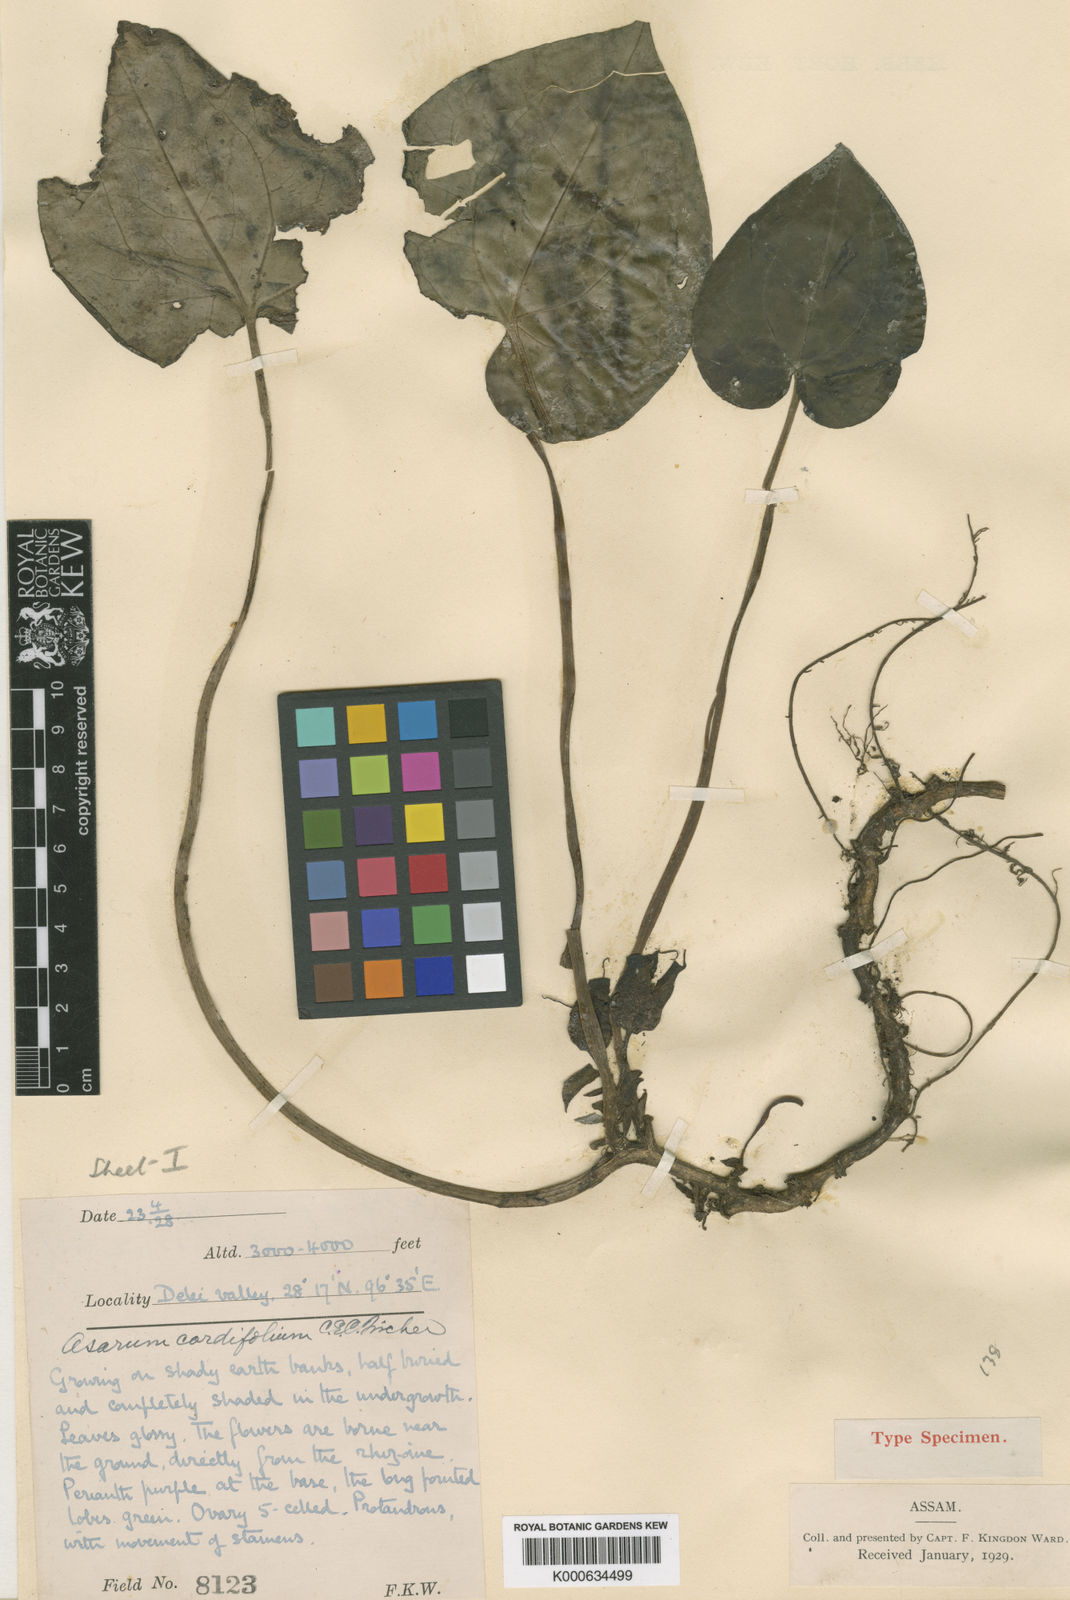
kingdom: Plantae
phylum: Tracheophyta
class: Magnoliopsida
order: Piperales
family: Aristolochiaceae
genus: Asarum
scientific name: Asarum cordifolium
